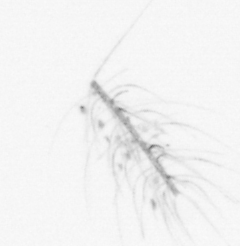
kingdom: Chromista
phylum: Ochrophyta
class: Bacillariophyceae
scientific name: Bacillariophyceae
